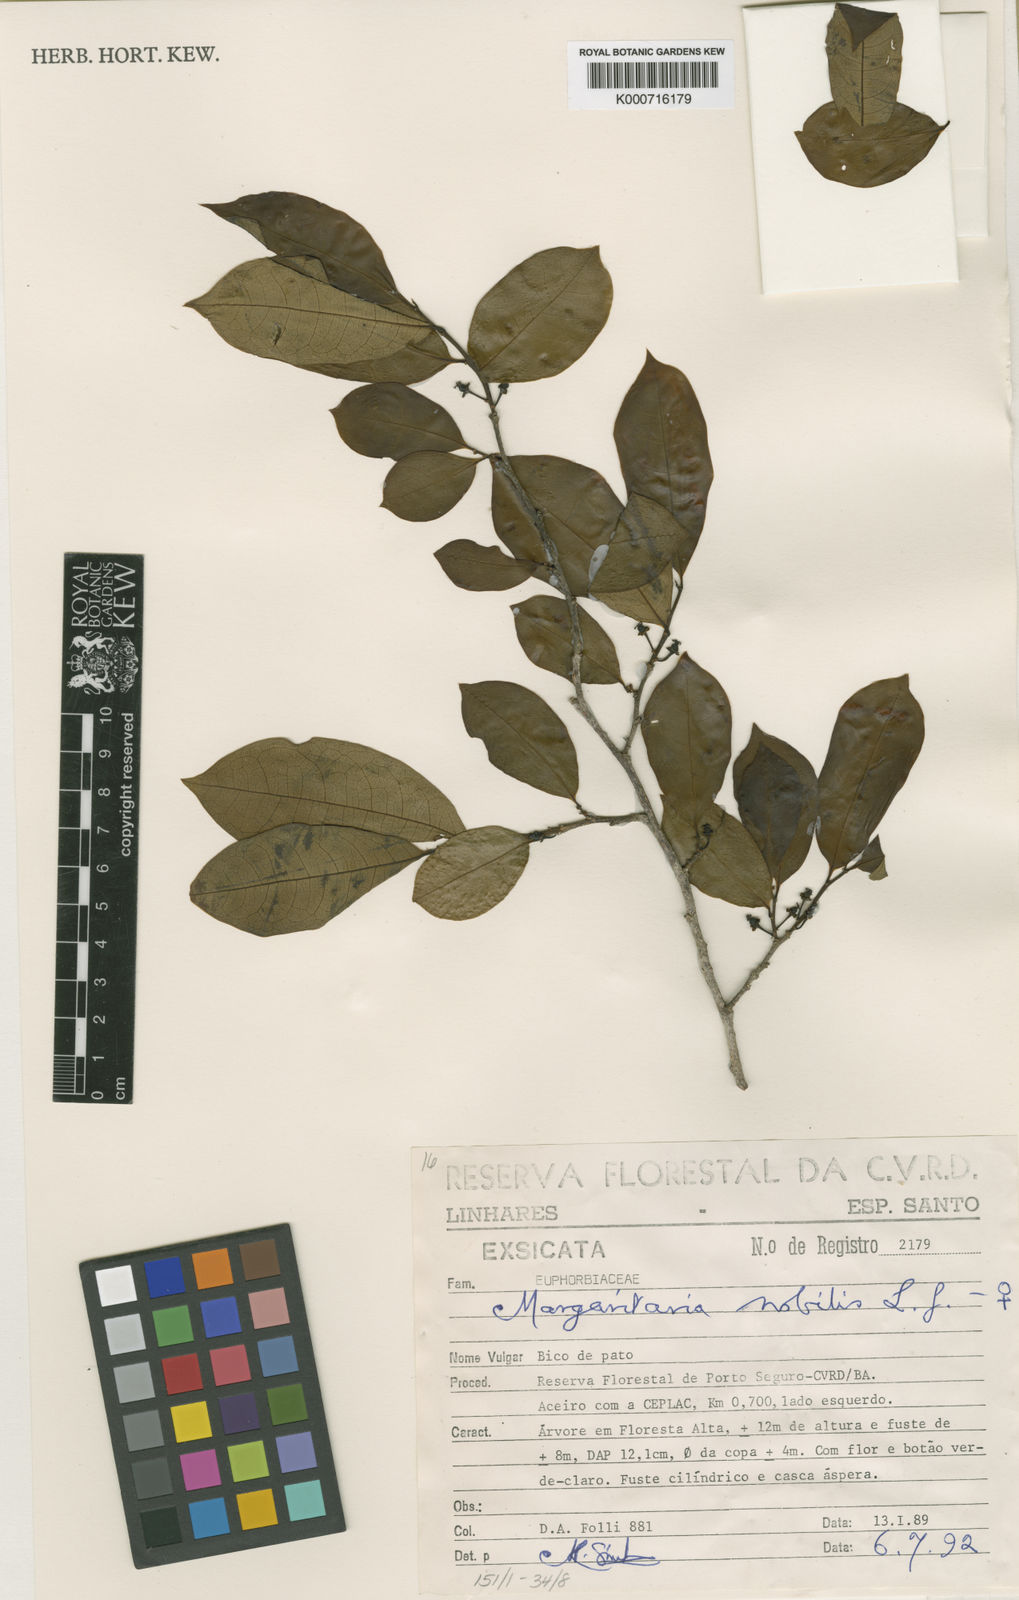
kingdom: Plantae
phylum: Tracheophyta
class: Magnoliopsida
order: Malpighiales
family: Phyllanthaceae
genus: Margaritaria
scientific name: Margaritaria nobilis
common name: Goose berry
